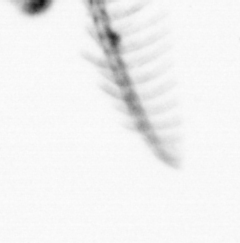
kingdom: Chromista
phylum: Ochrophyta
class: Bacillariophyceae
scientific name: Bacillariophyceae
